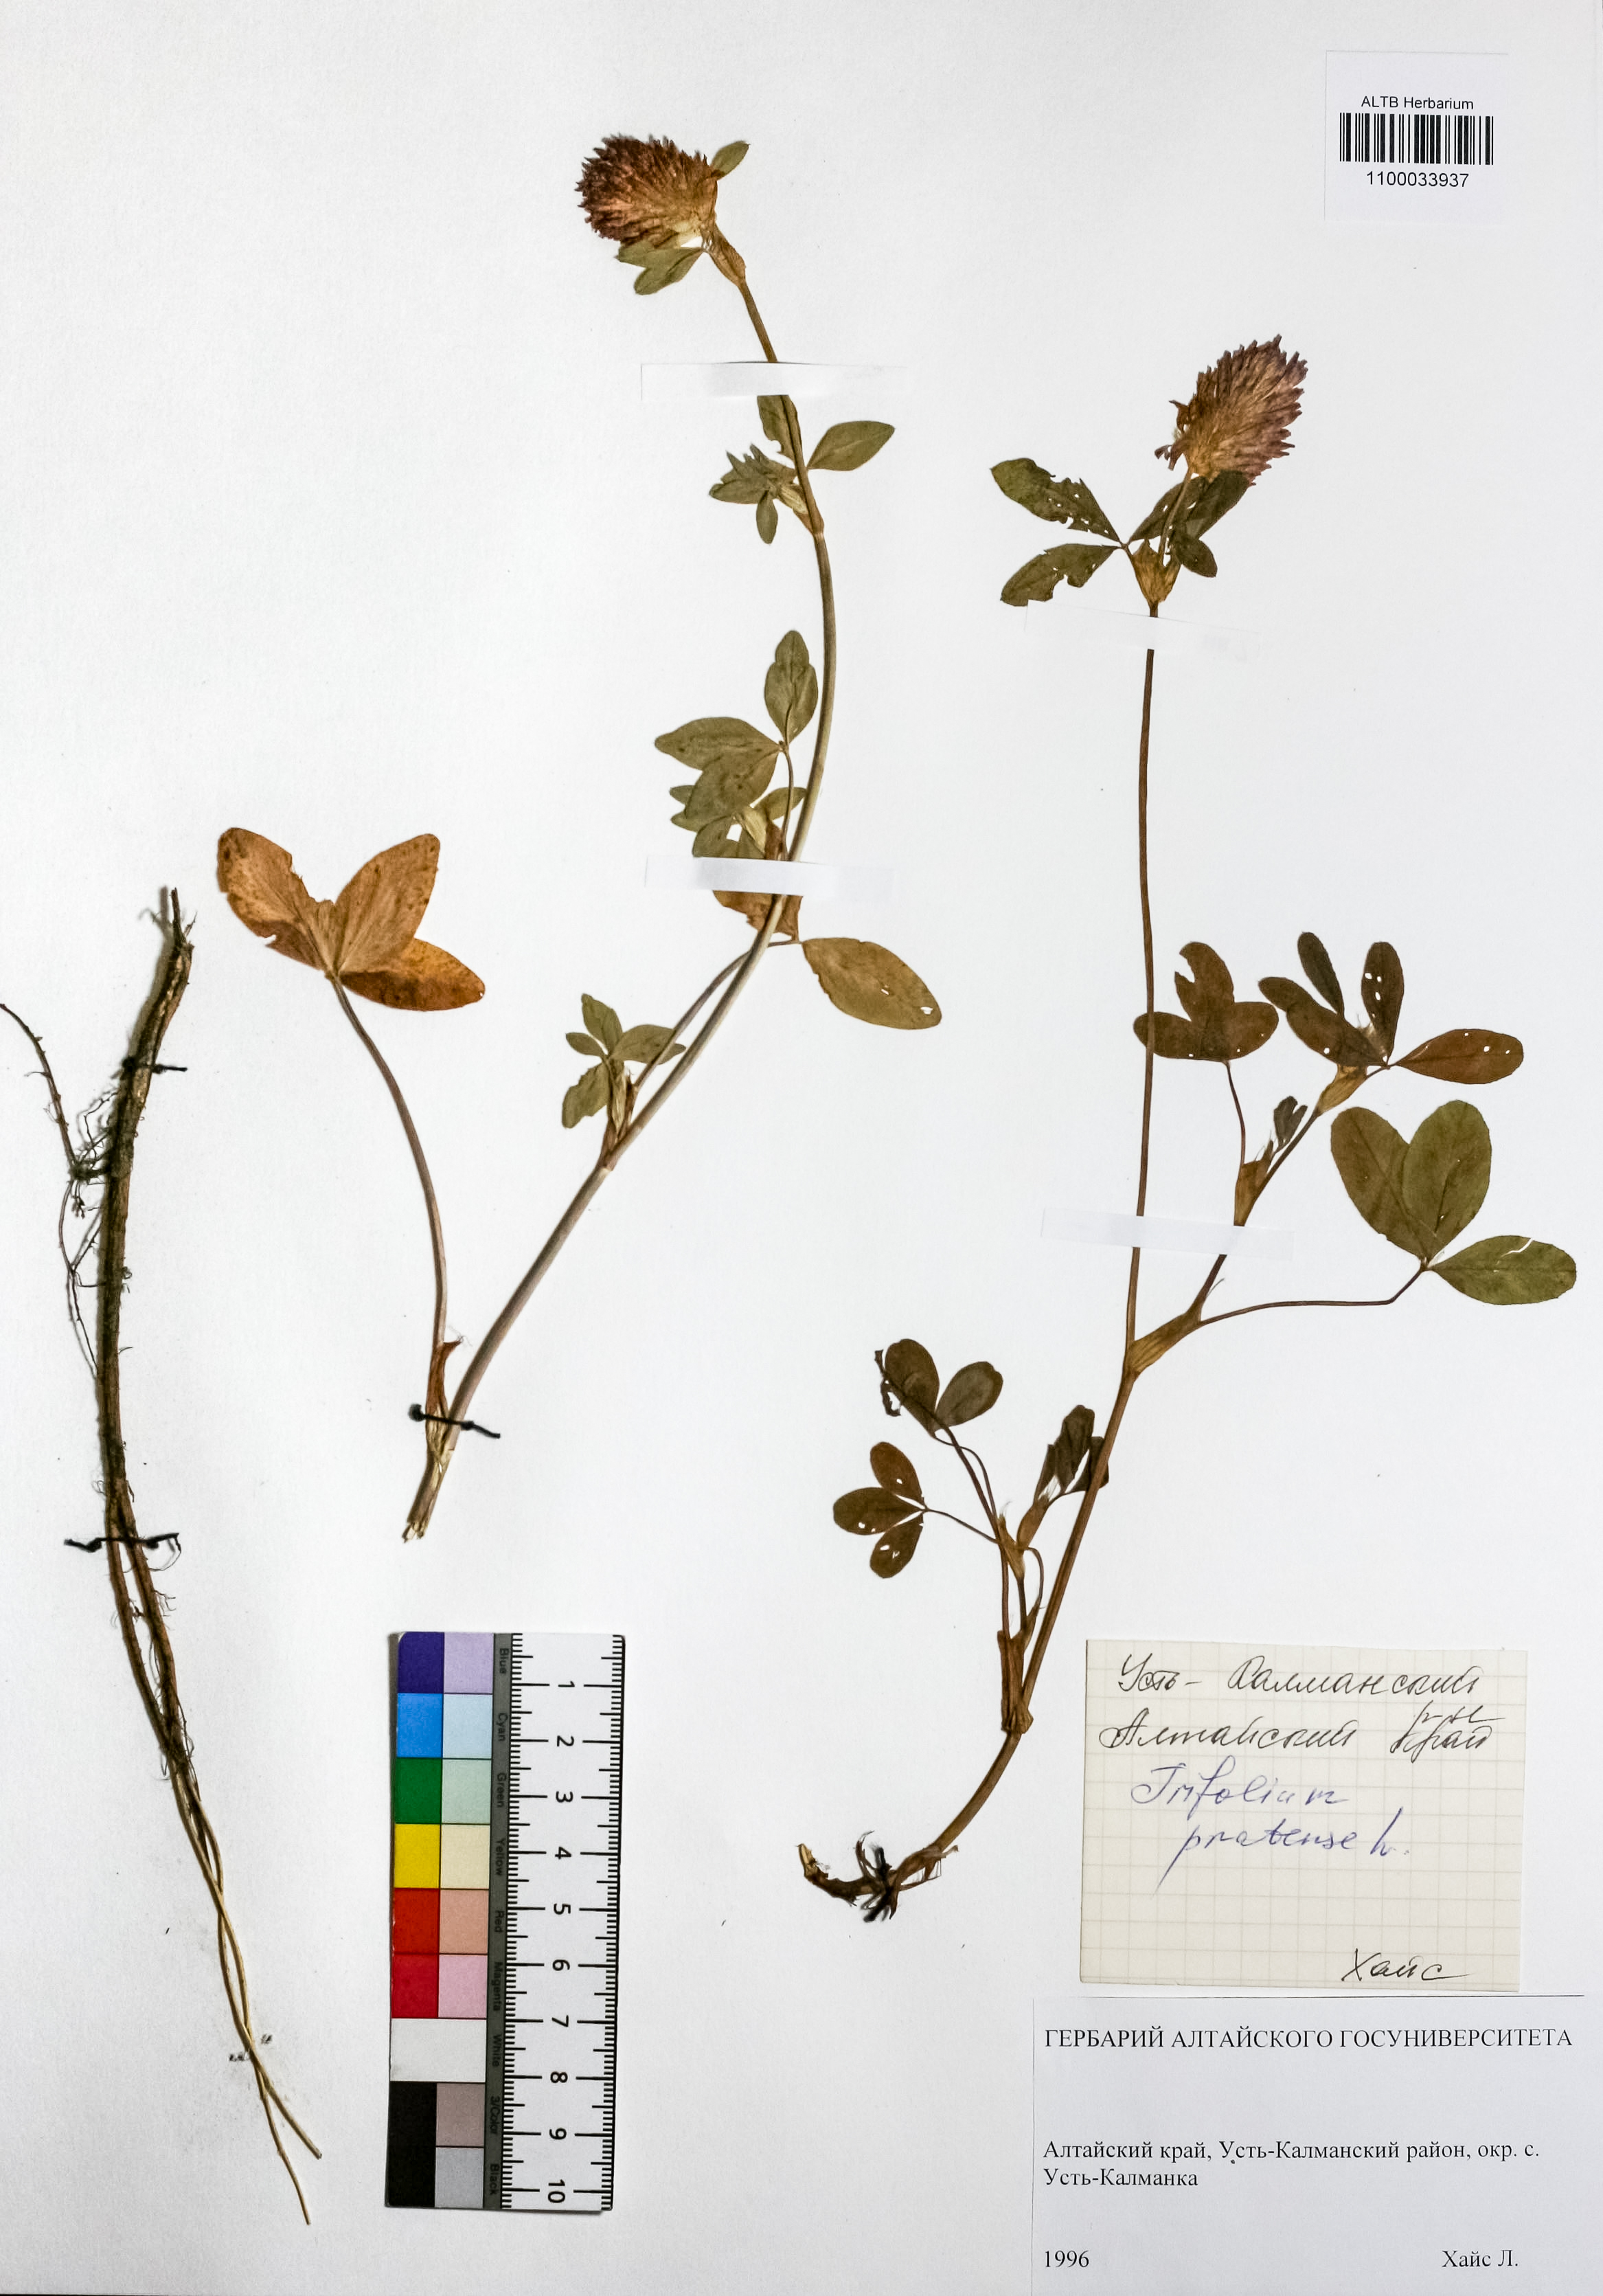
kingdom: Plantae
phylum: Tracheophyta
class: Magnoliopsida
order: Fabales
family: Fabaceae
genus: Trifolium
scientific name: Trifolium pratense
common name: Red clover
